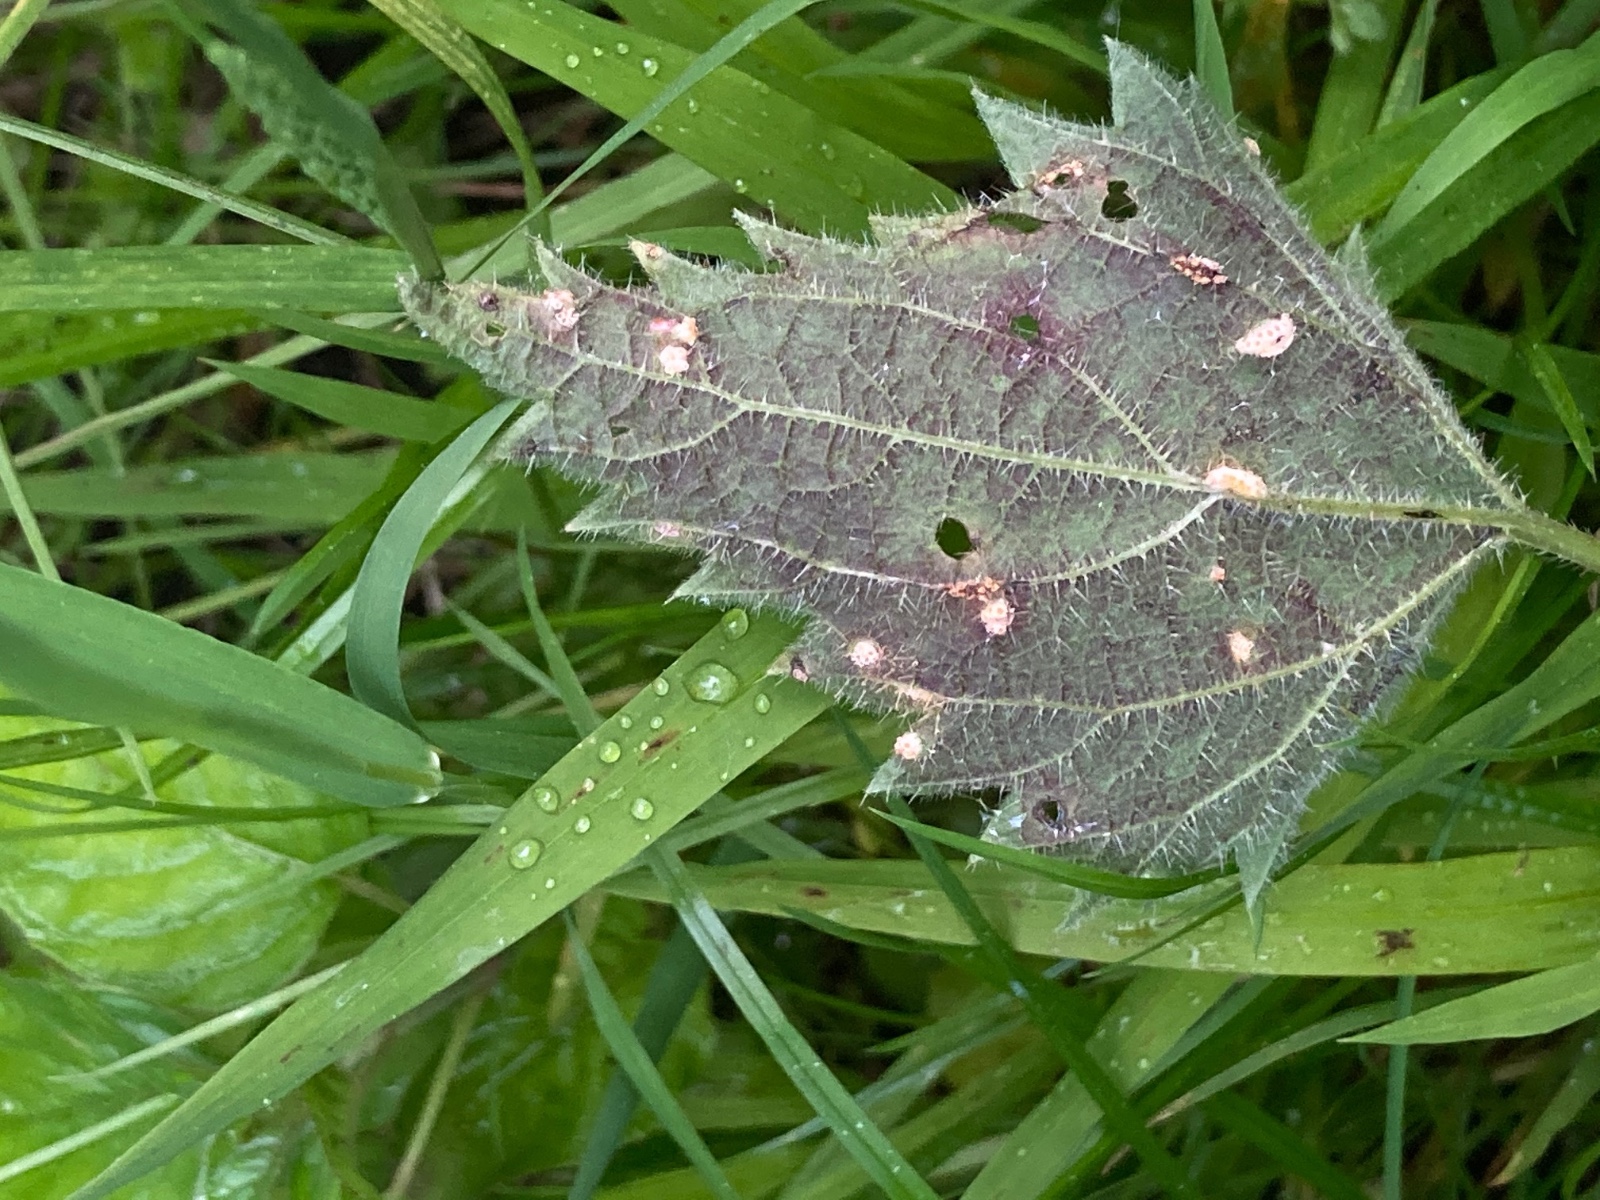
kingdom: Fungi
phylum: Basidiomycota
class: Pucciniomycetes
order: Pucciniales
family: Pucciniaceae
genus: Puccinia
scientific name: Puccinia urticata
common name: nældegalle-tvecellerust
